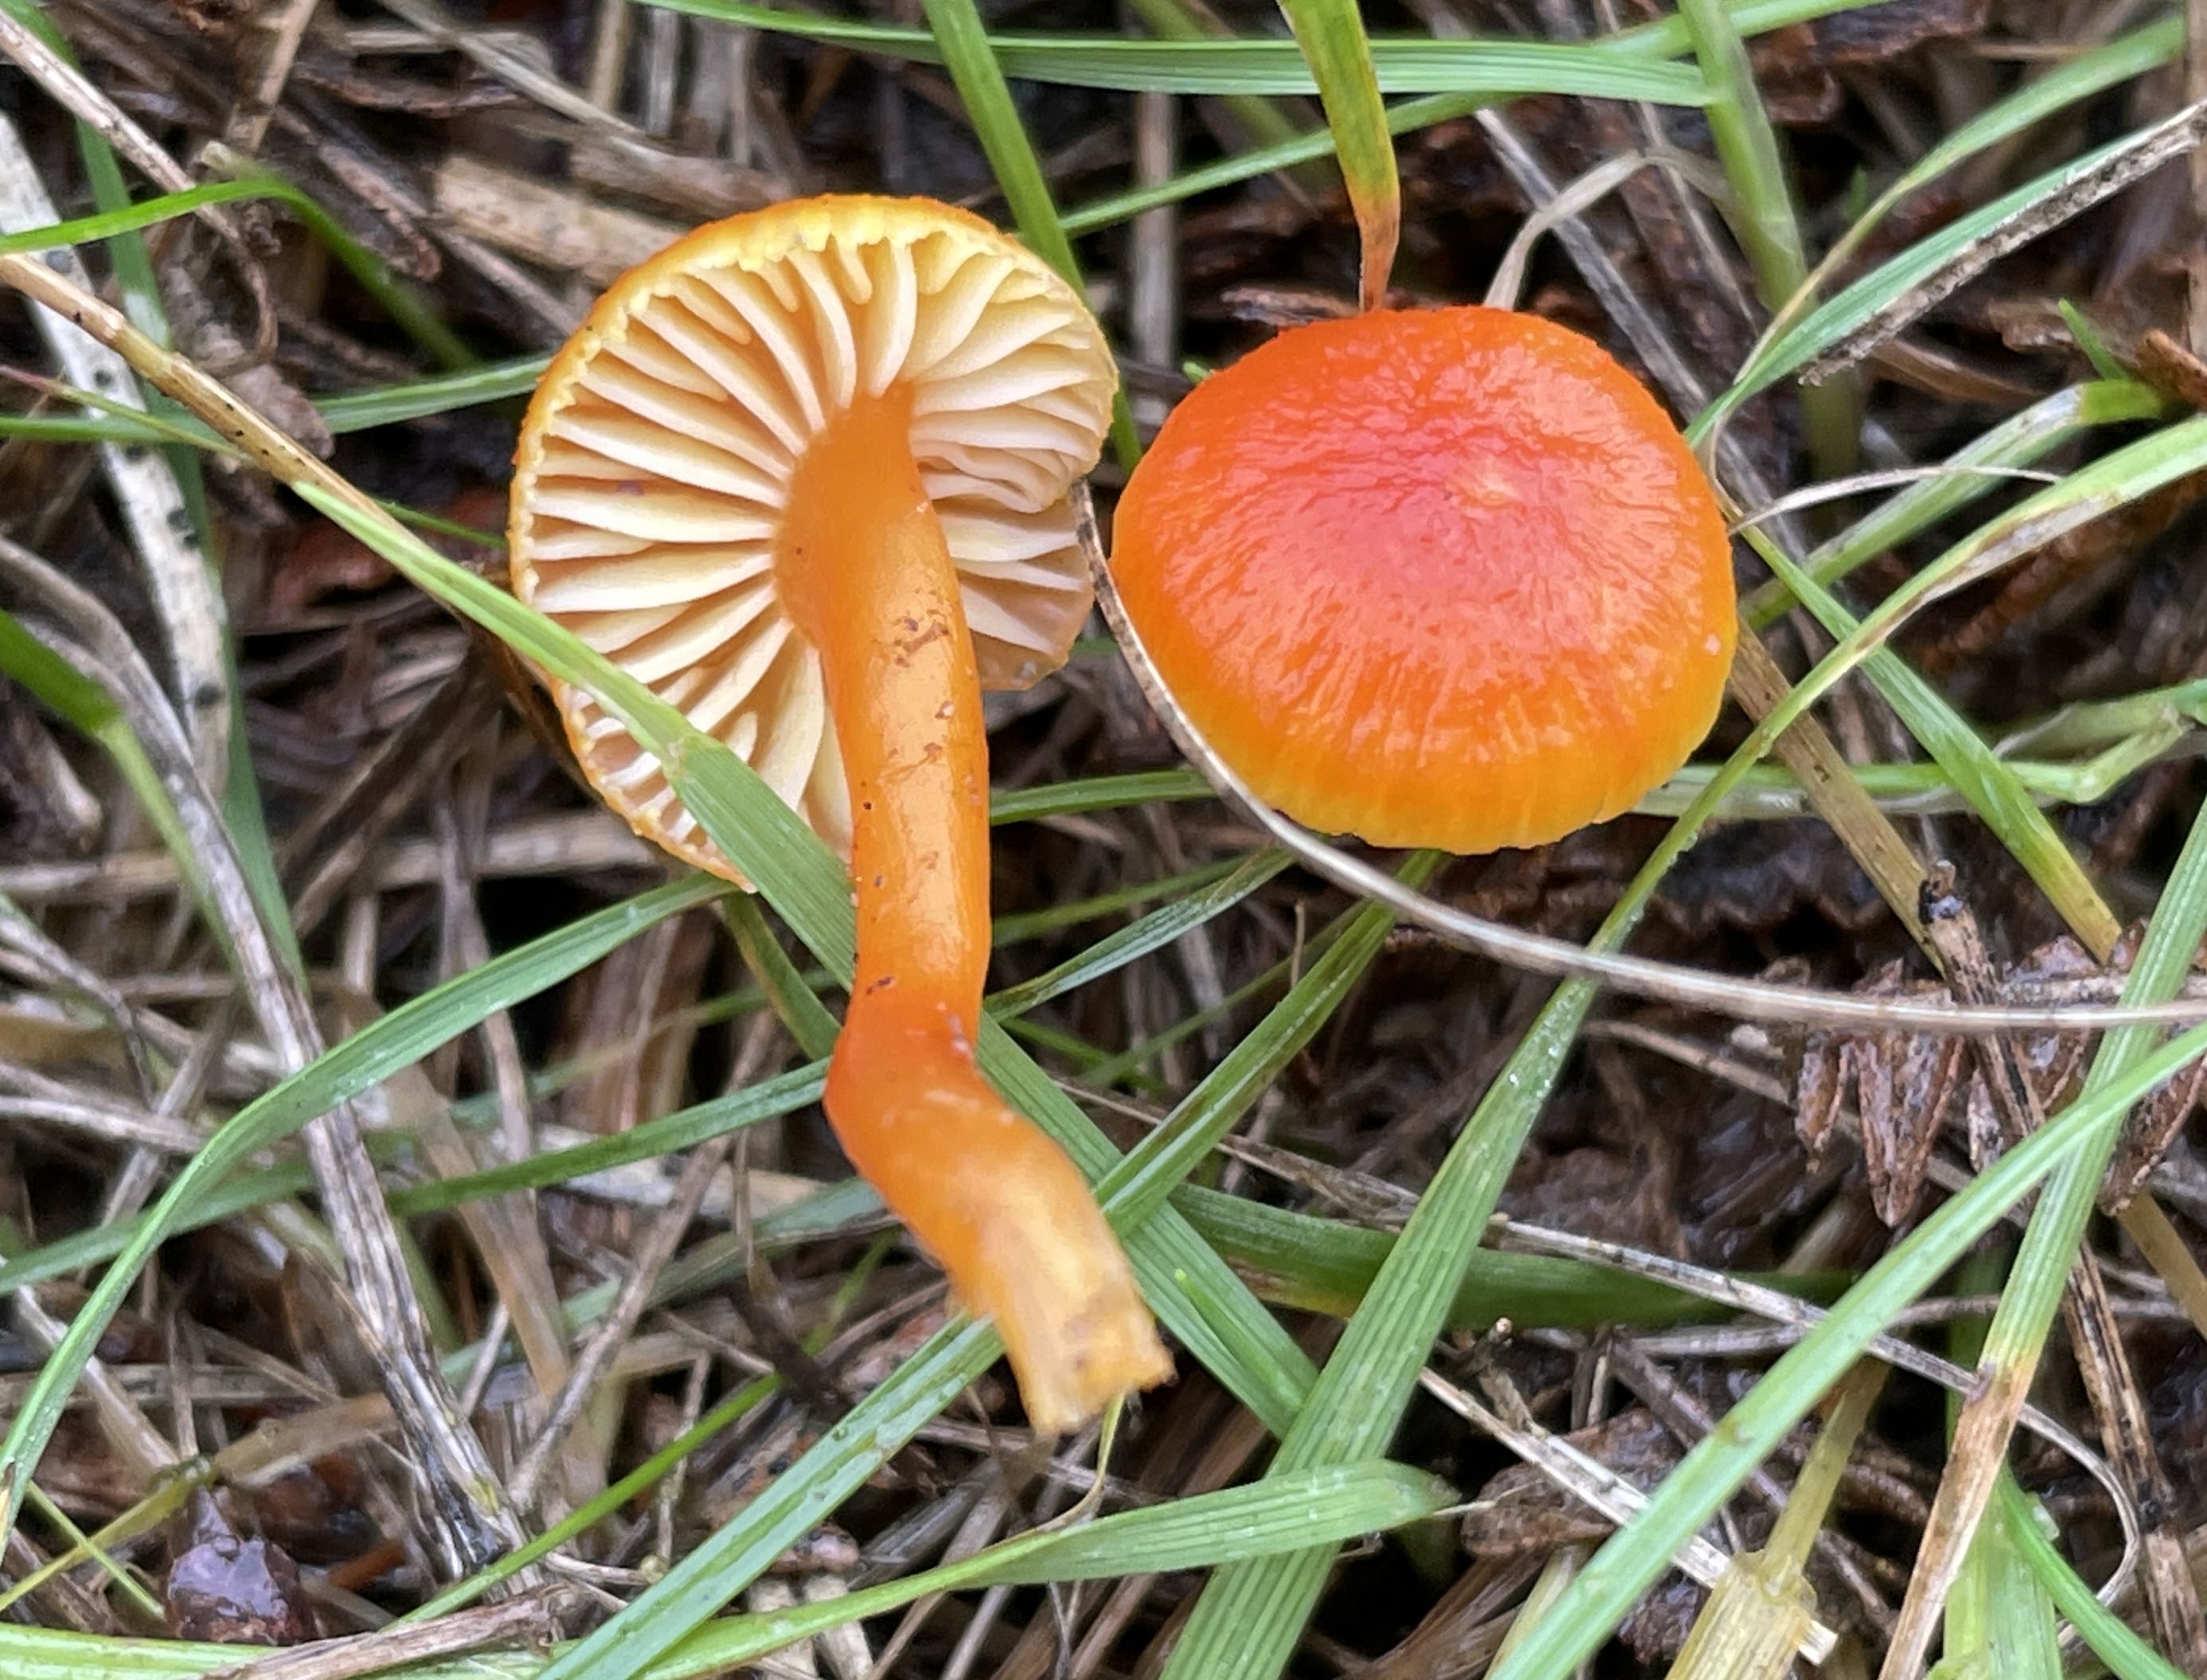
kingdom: Fungi
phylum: Basidiomycota
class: Agaricomycetes
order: Agaricales
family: Hygrophoraceae
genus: Hygrocybe
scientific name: Hygrocybe
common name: vokshat
